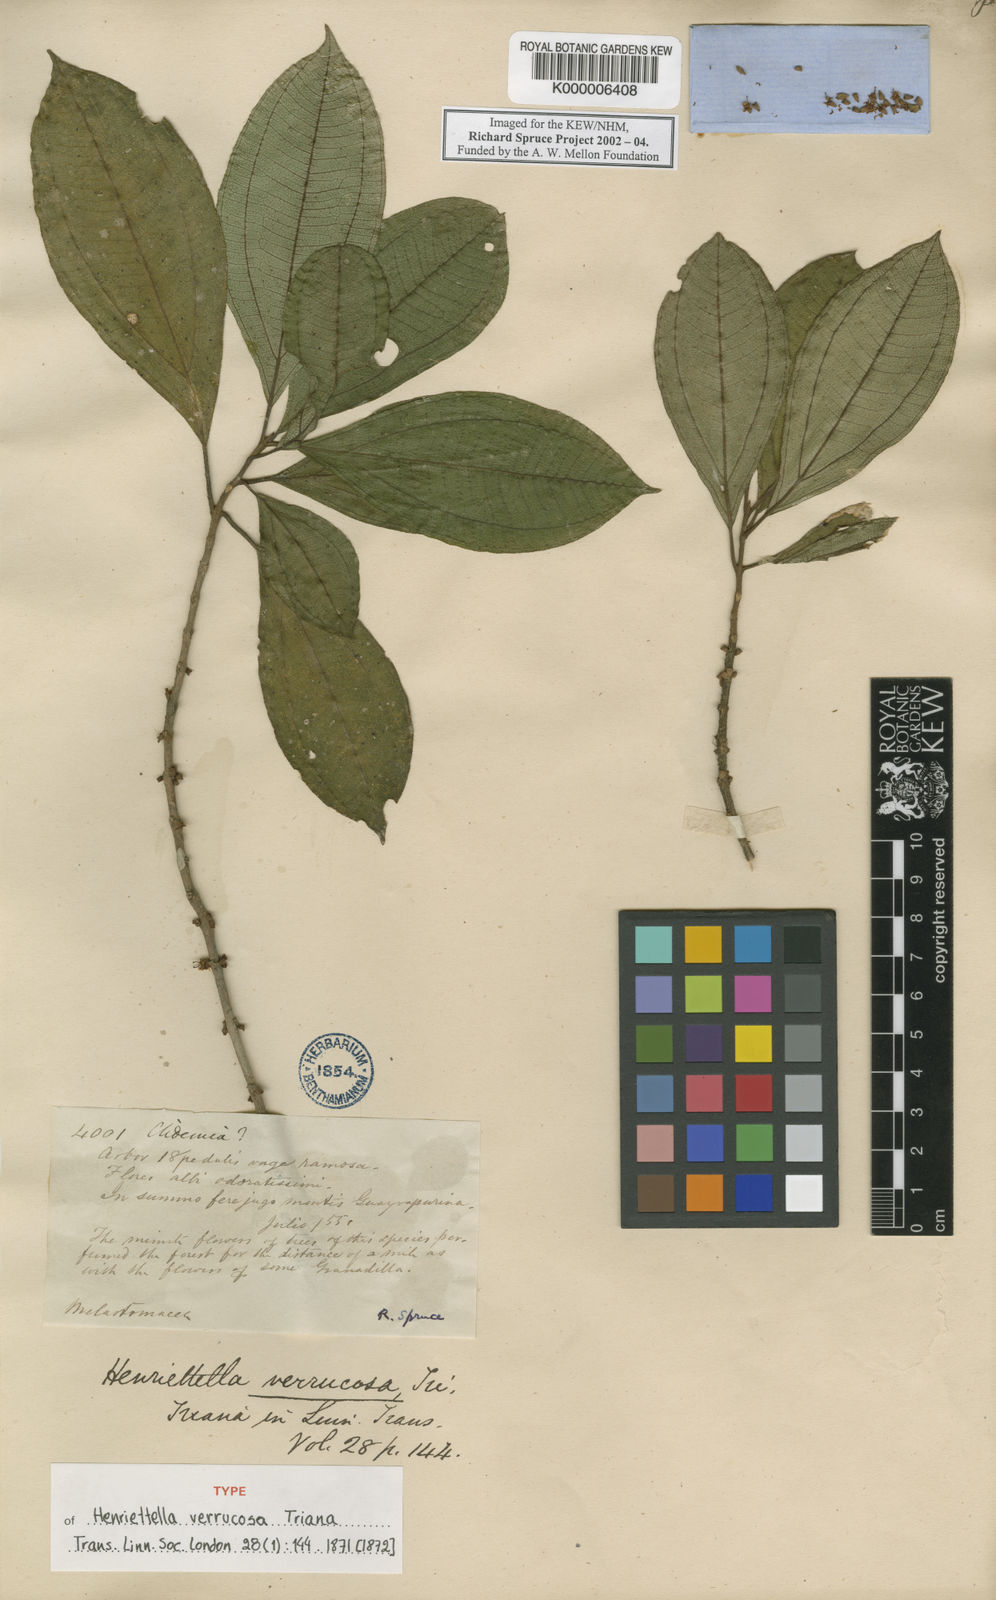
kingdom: Plantae
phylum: Tracheophyta
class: Magnoliopsida
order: Myrtales
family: Melastomataceae
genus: Henriettea
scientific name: Henriettea verrucosa
